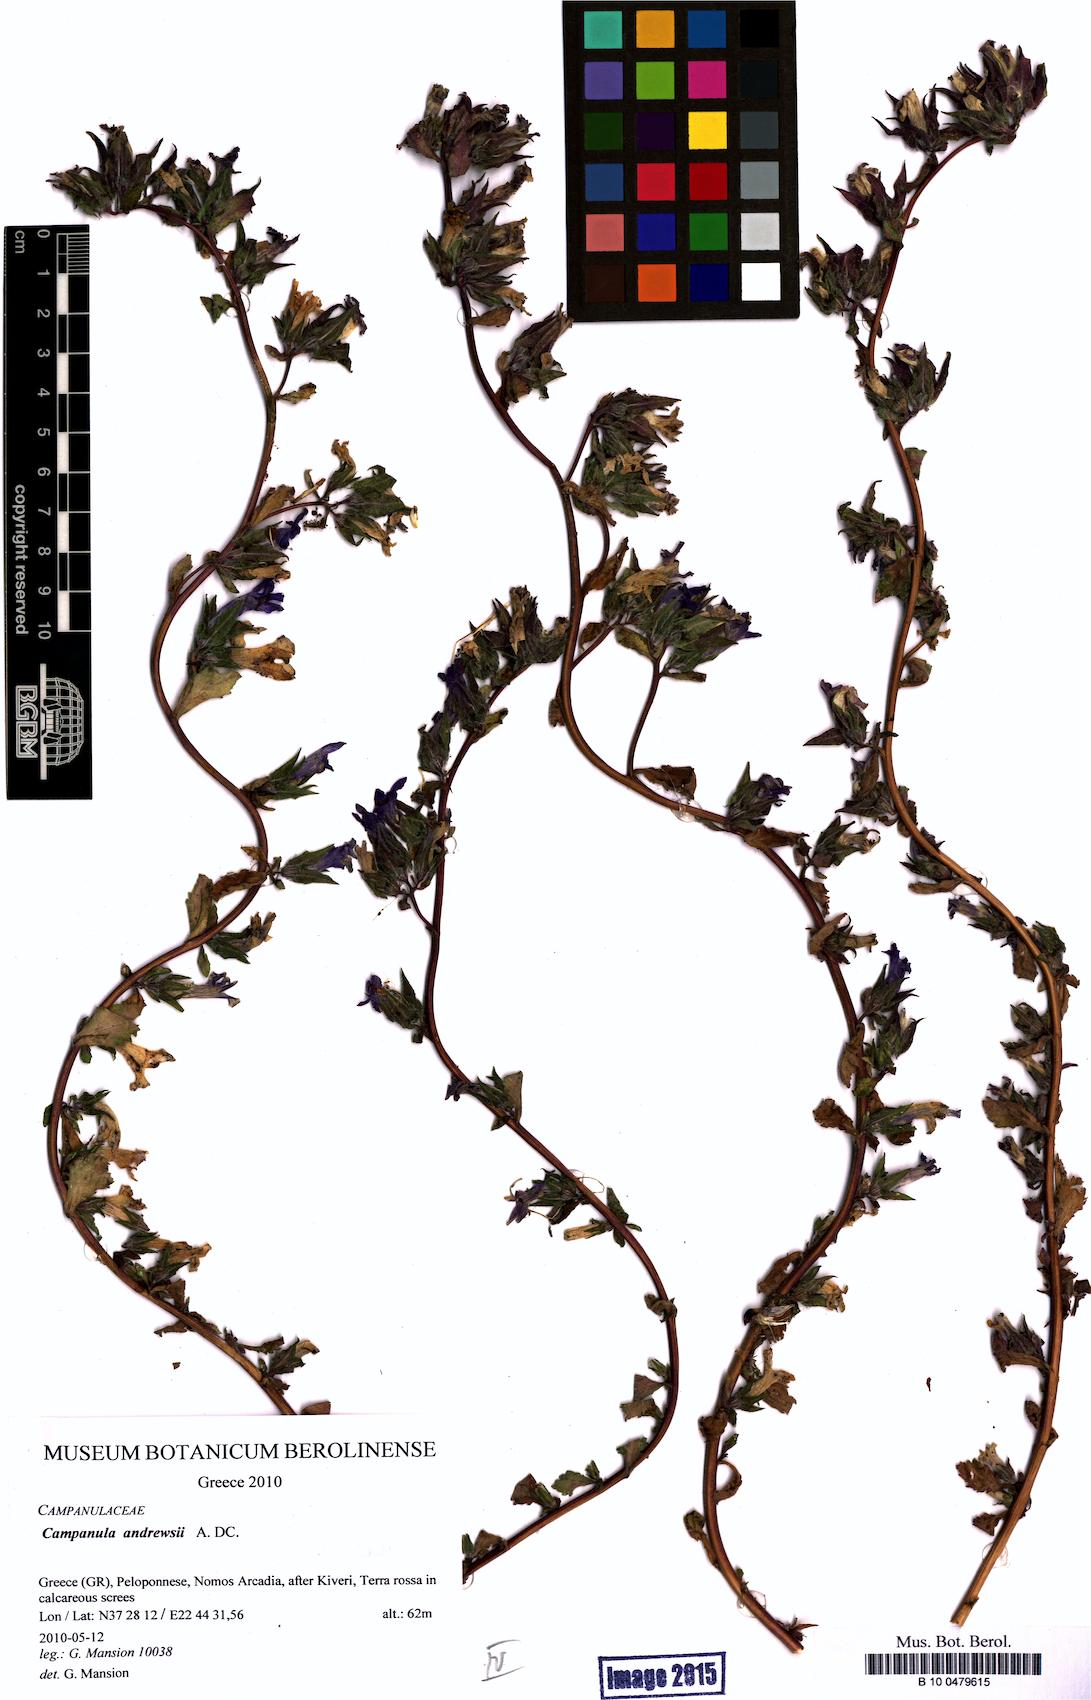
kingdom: Plantae
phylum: Tracheophyta
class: Magnoliopsida
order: Asterales
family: Campanulaceae
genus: Campanula
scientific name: Campanula andrewsii
